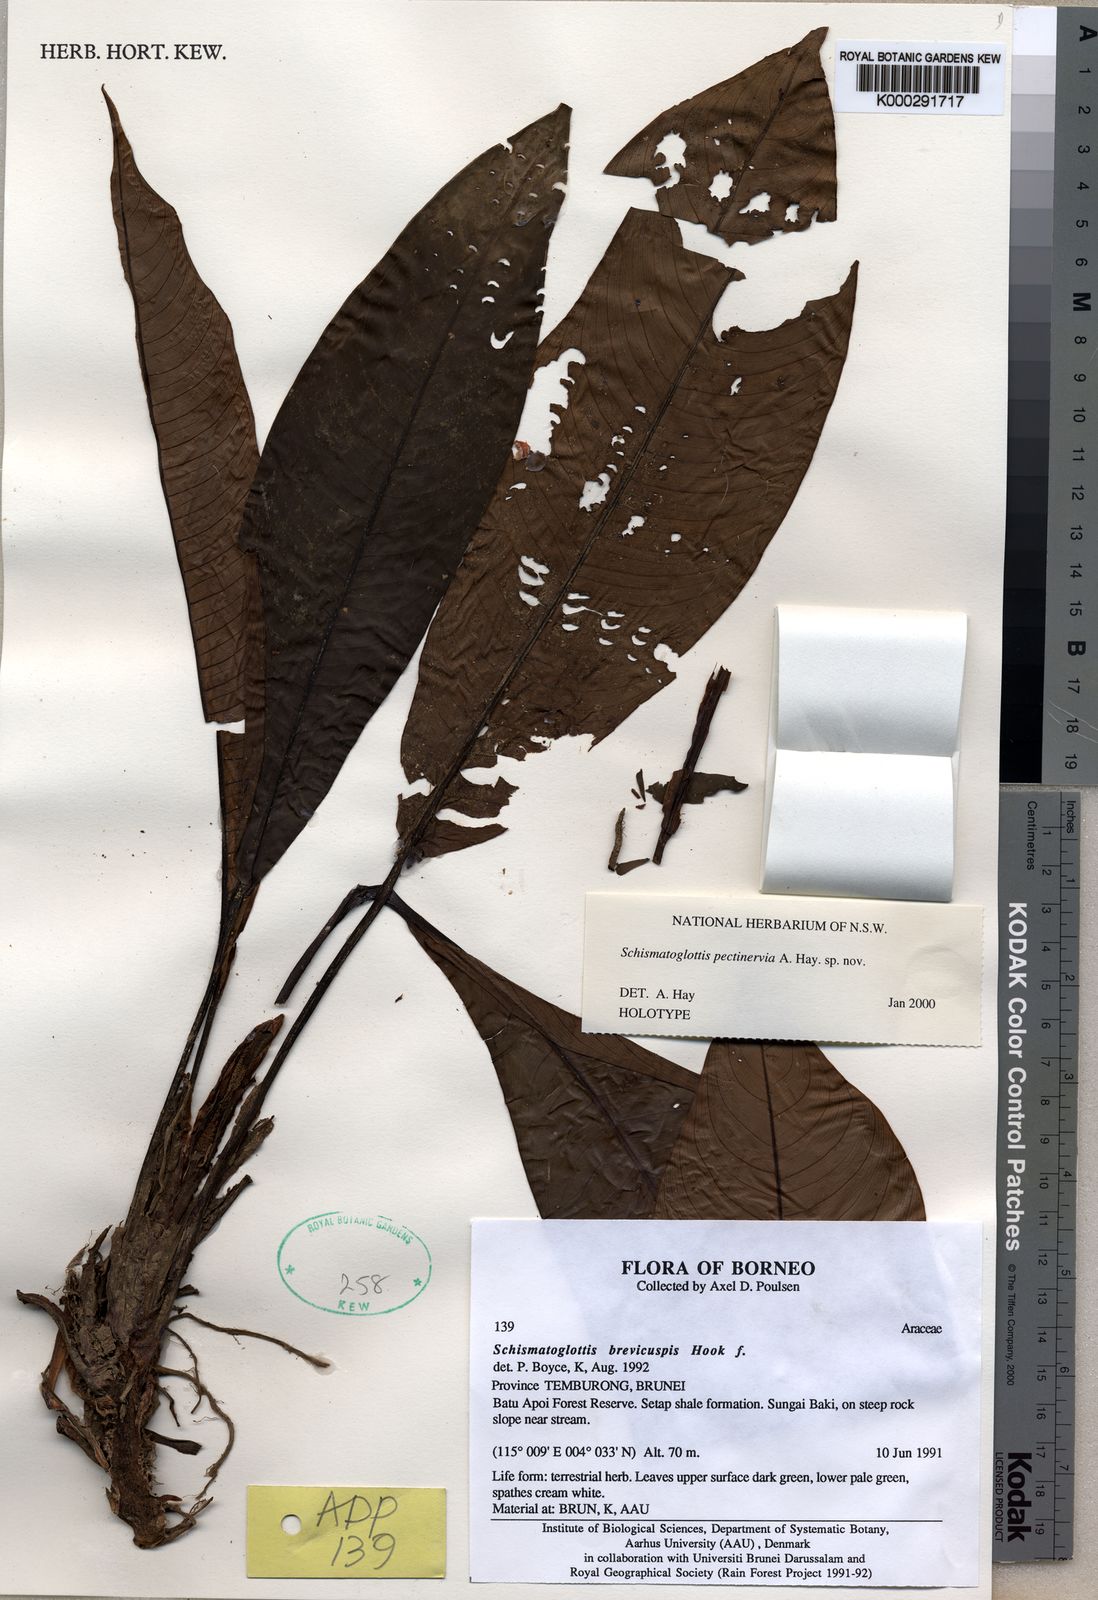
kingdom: Plantae
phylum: Tracheophyta
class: Liliopsida
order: Alismatales
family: Araceae
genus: Schismatoglottis
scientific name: Schismatoglottis pectinervia
